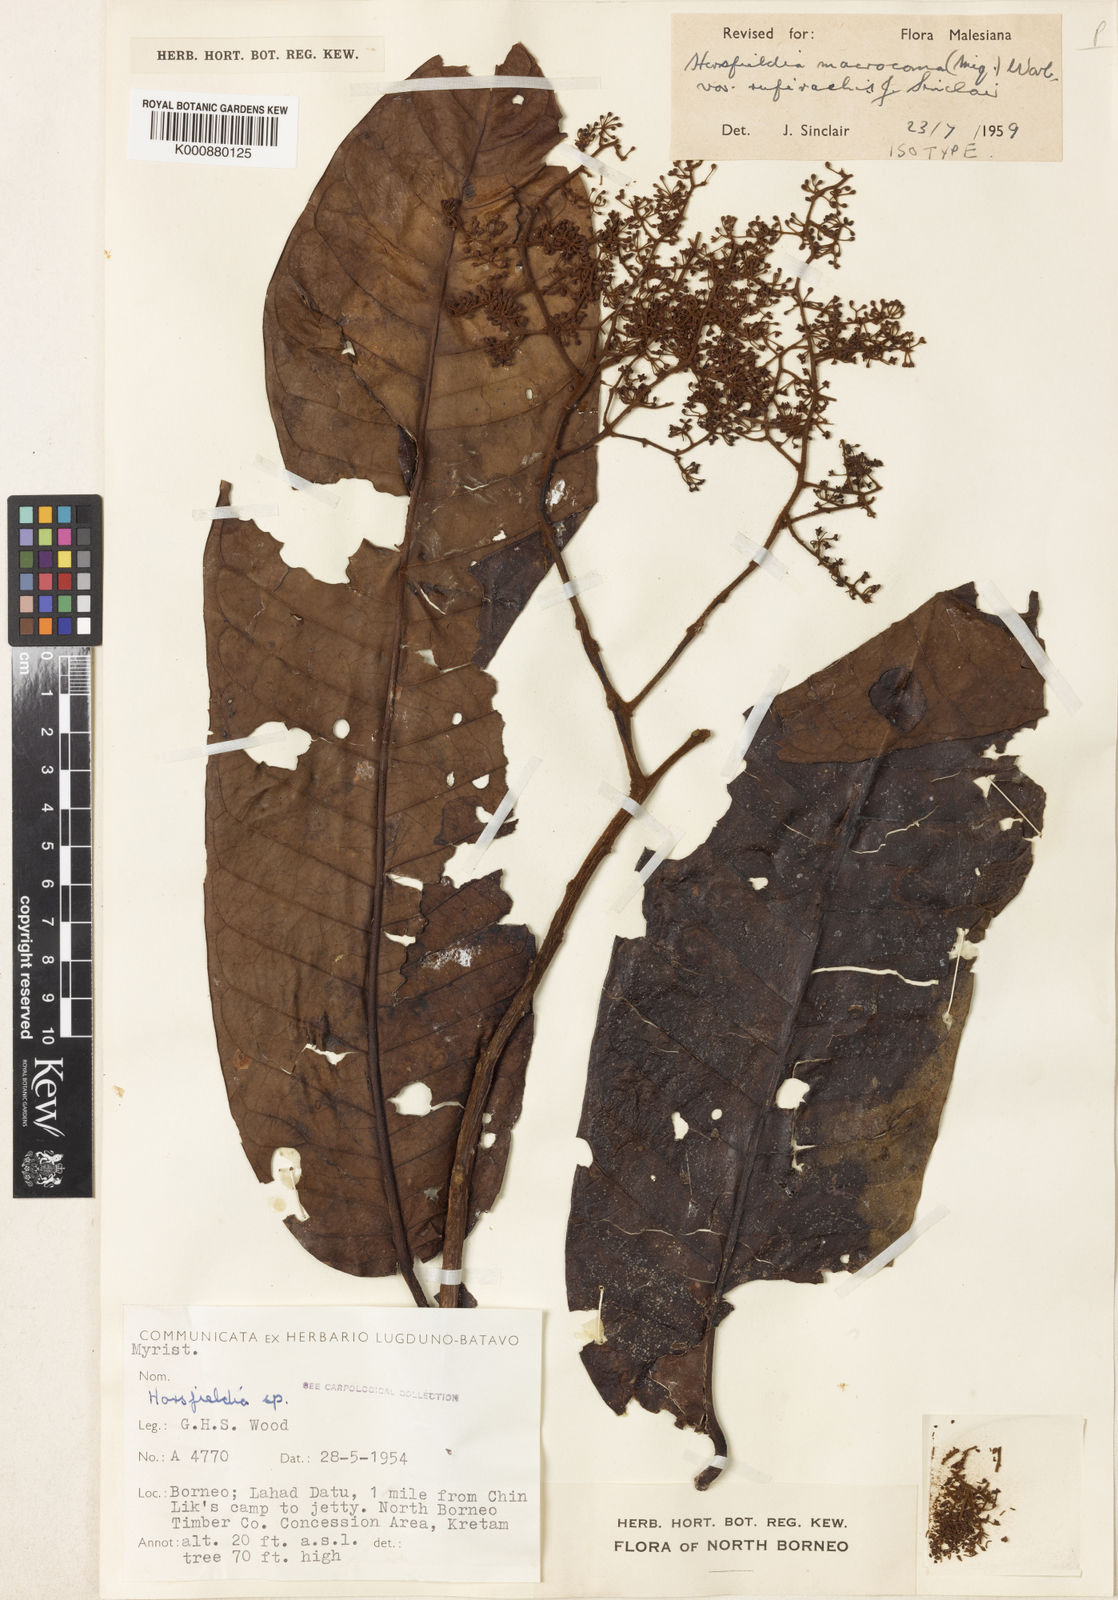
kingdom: Plantae
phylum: Tracheophyta
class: Magnoliopsida
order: Magnoliales
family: Myristicaceae
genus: Endocomia
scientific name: Endocomia rufirachis
